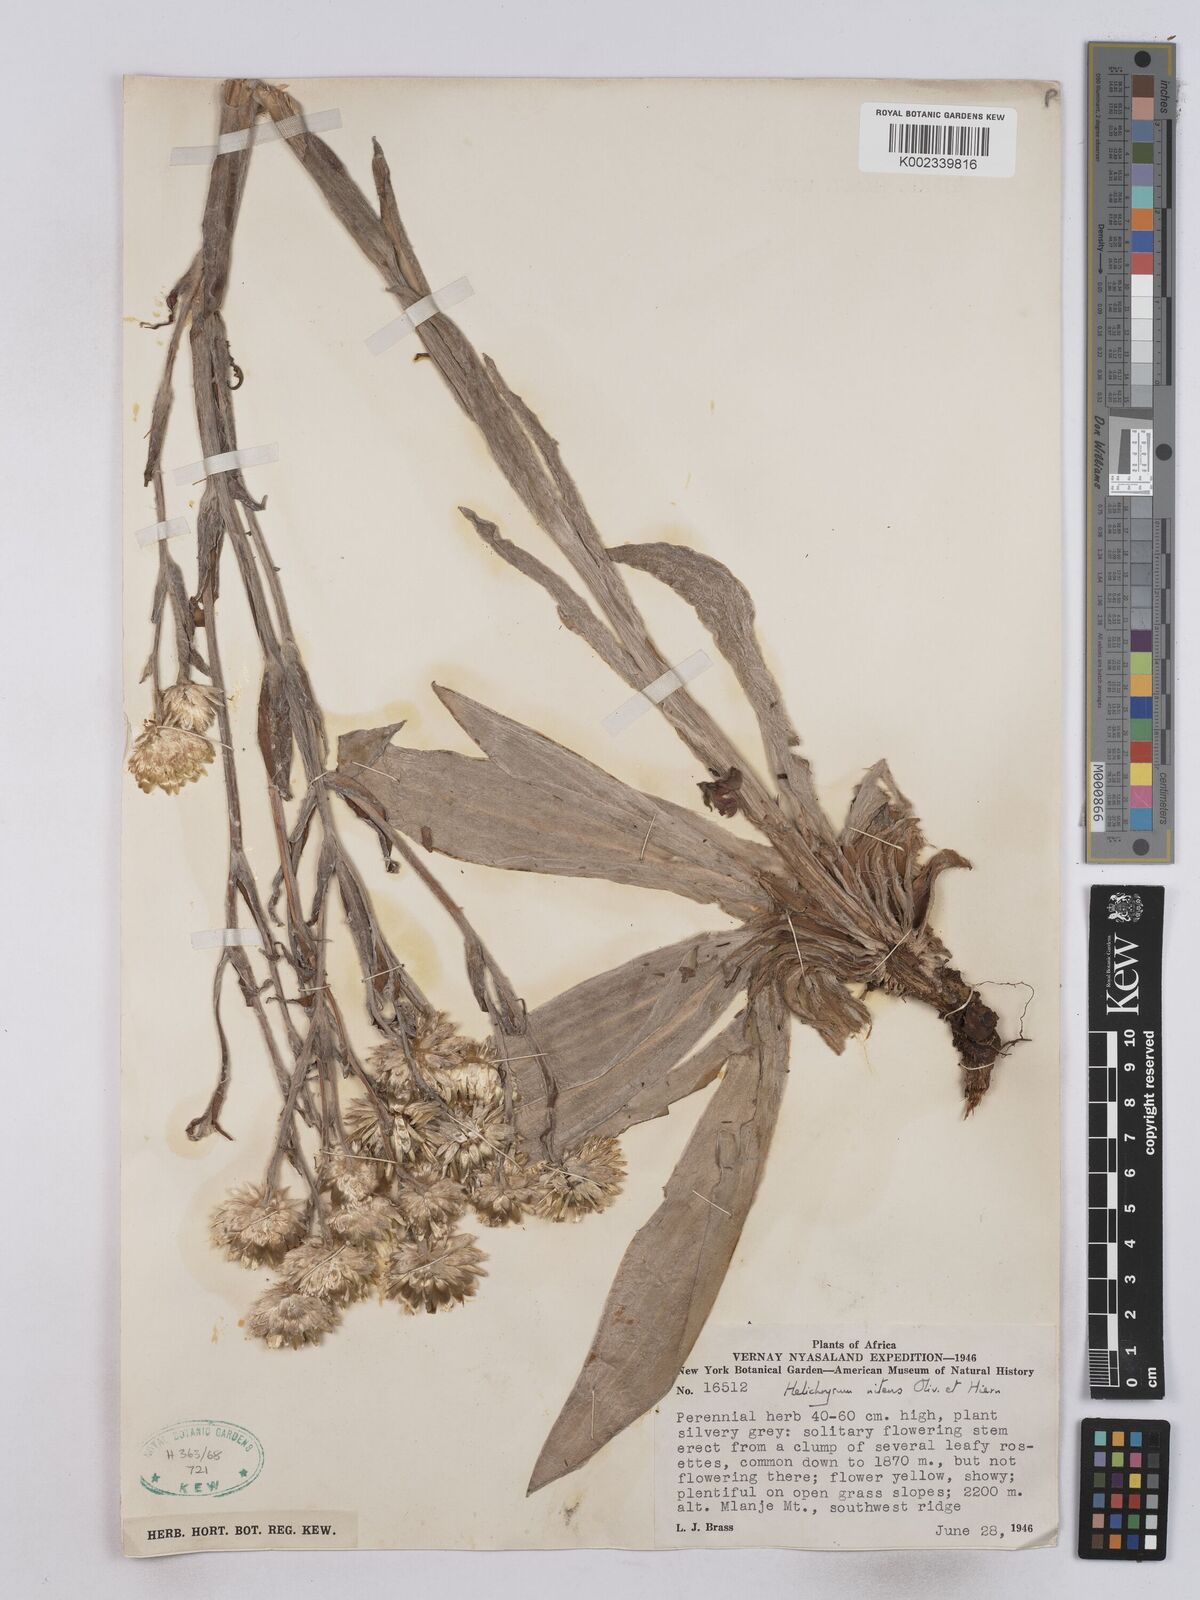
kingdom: Plantae
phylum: Tracheophyta
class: Magnoliopsida
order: Asterales
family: Asteraceae
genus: Helichrysum
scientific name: Helichrysum nitens
